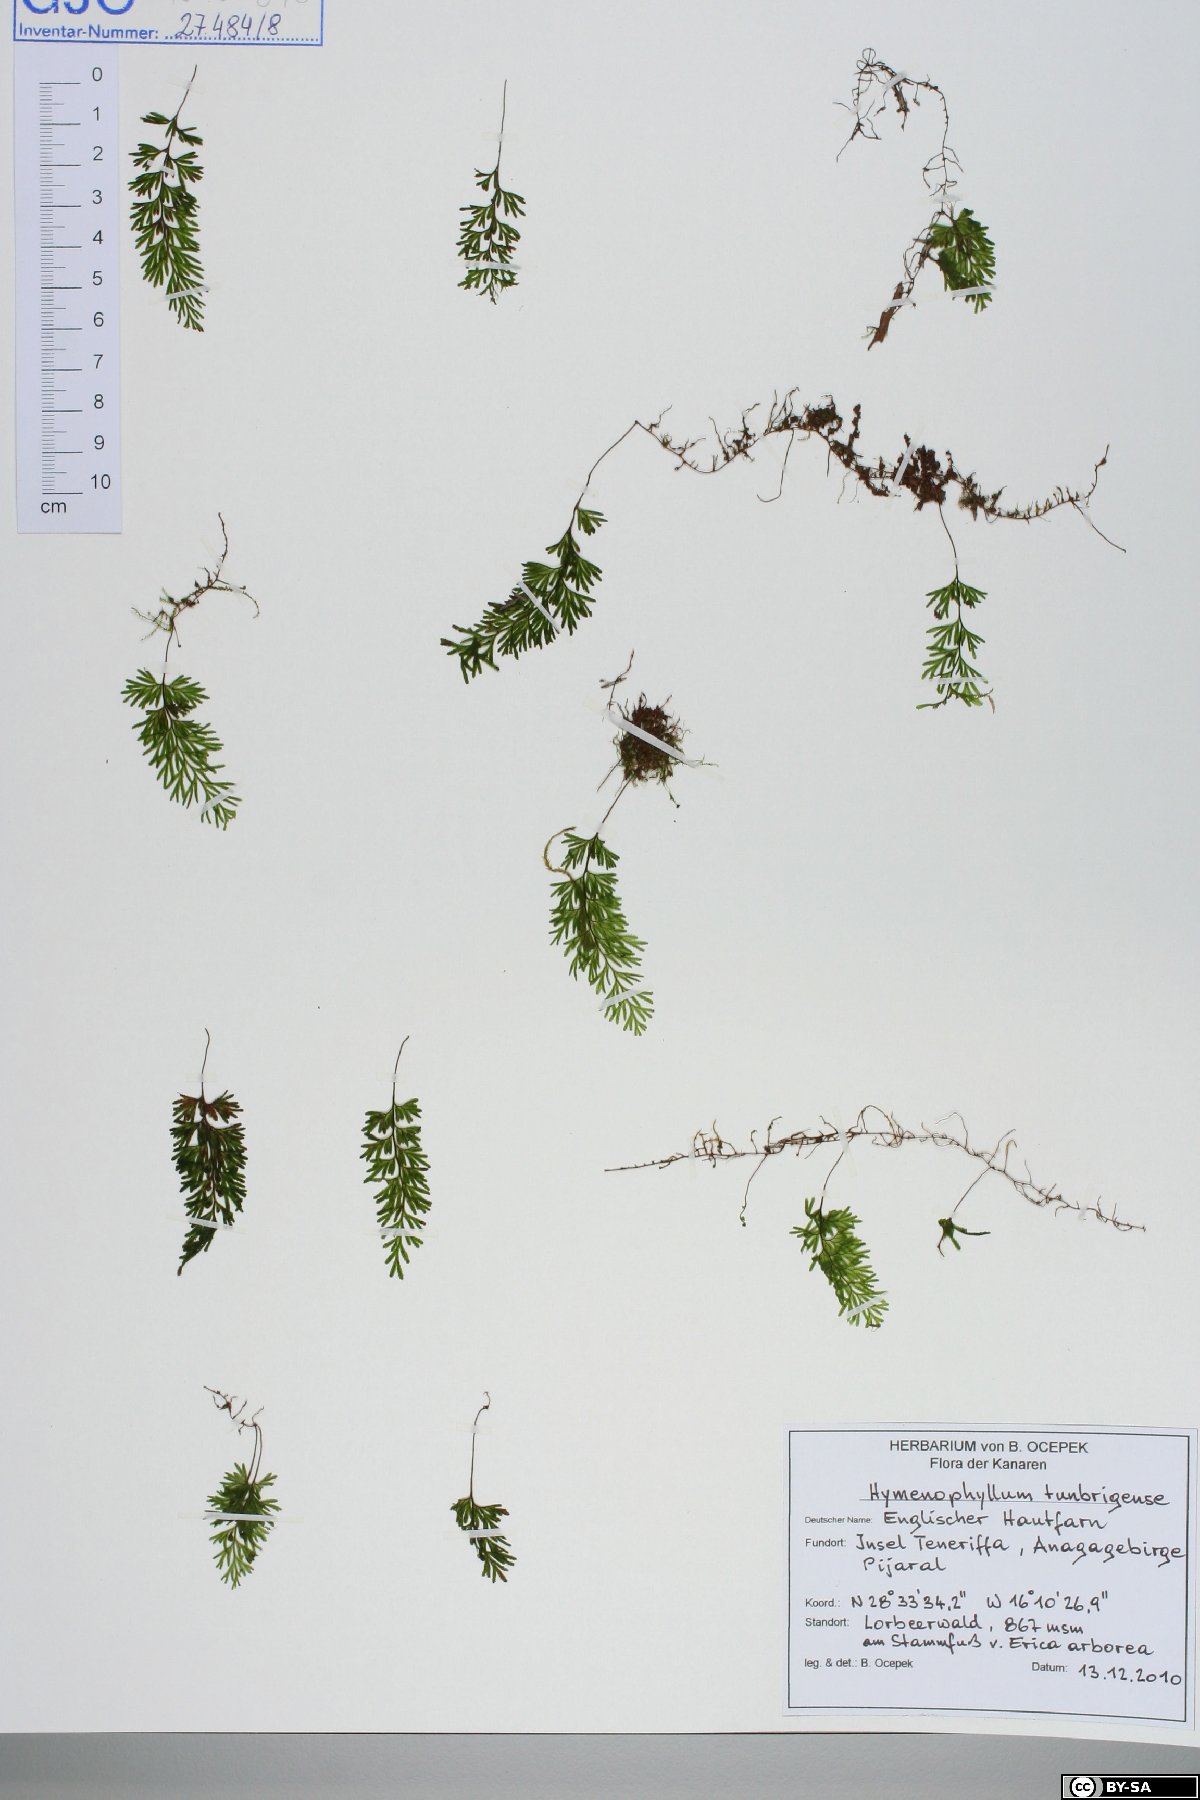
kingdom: Plantae
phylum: Tracheophyta
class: Polypodiopsida
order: Hymenophyllales
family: Hymenophyllaceae
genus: Hymenophyllum
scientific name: Hymenophyllum tunbrigense
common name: Tunbridge filmy fern
